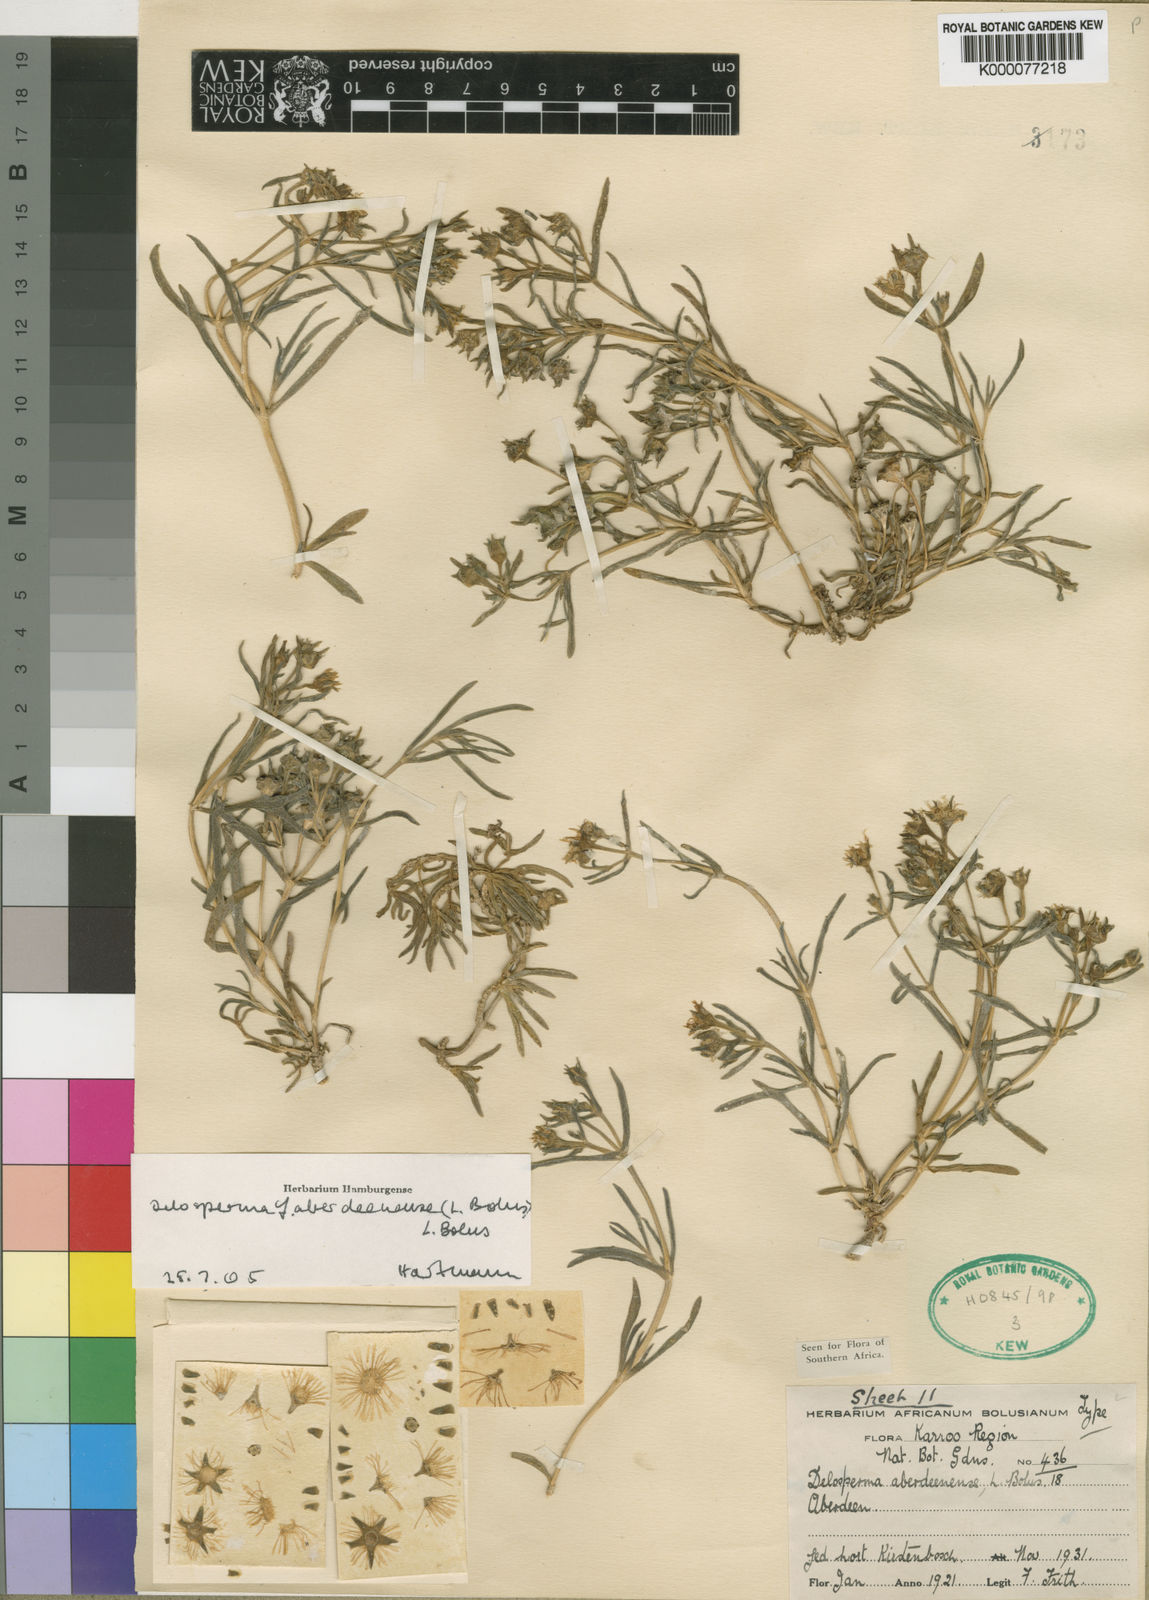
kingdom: Plantae
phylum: Tracheophyta
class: Magnoliopsida
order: Caryophyllales
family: Aizoaceae
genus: Delosperma
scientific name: Delosperma aberdeenense
